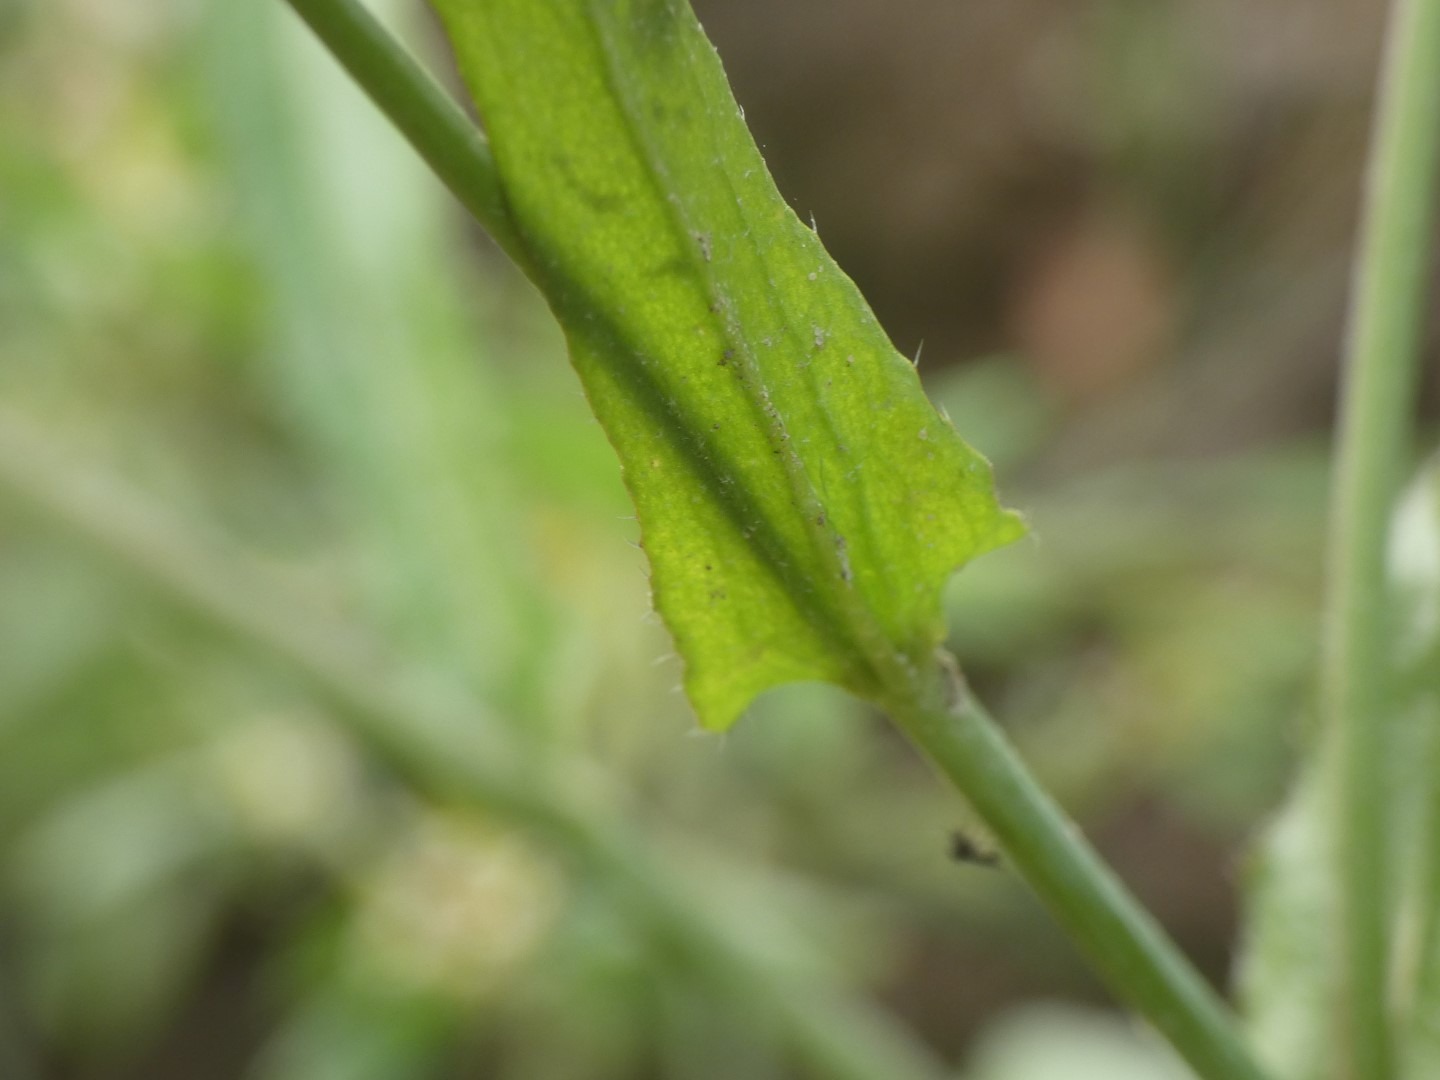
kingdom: Plantae
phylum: Tracheophyta
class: Magnoliopsida
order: Brassicales
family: Brassicaceae
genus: Capsella
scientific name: Capsella bursa-pastoris
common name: Hyrdetaske
